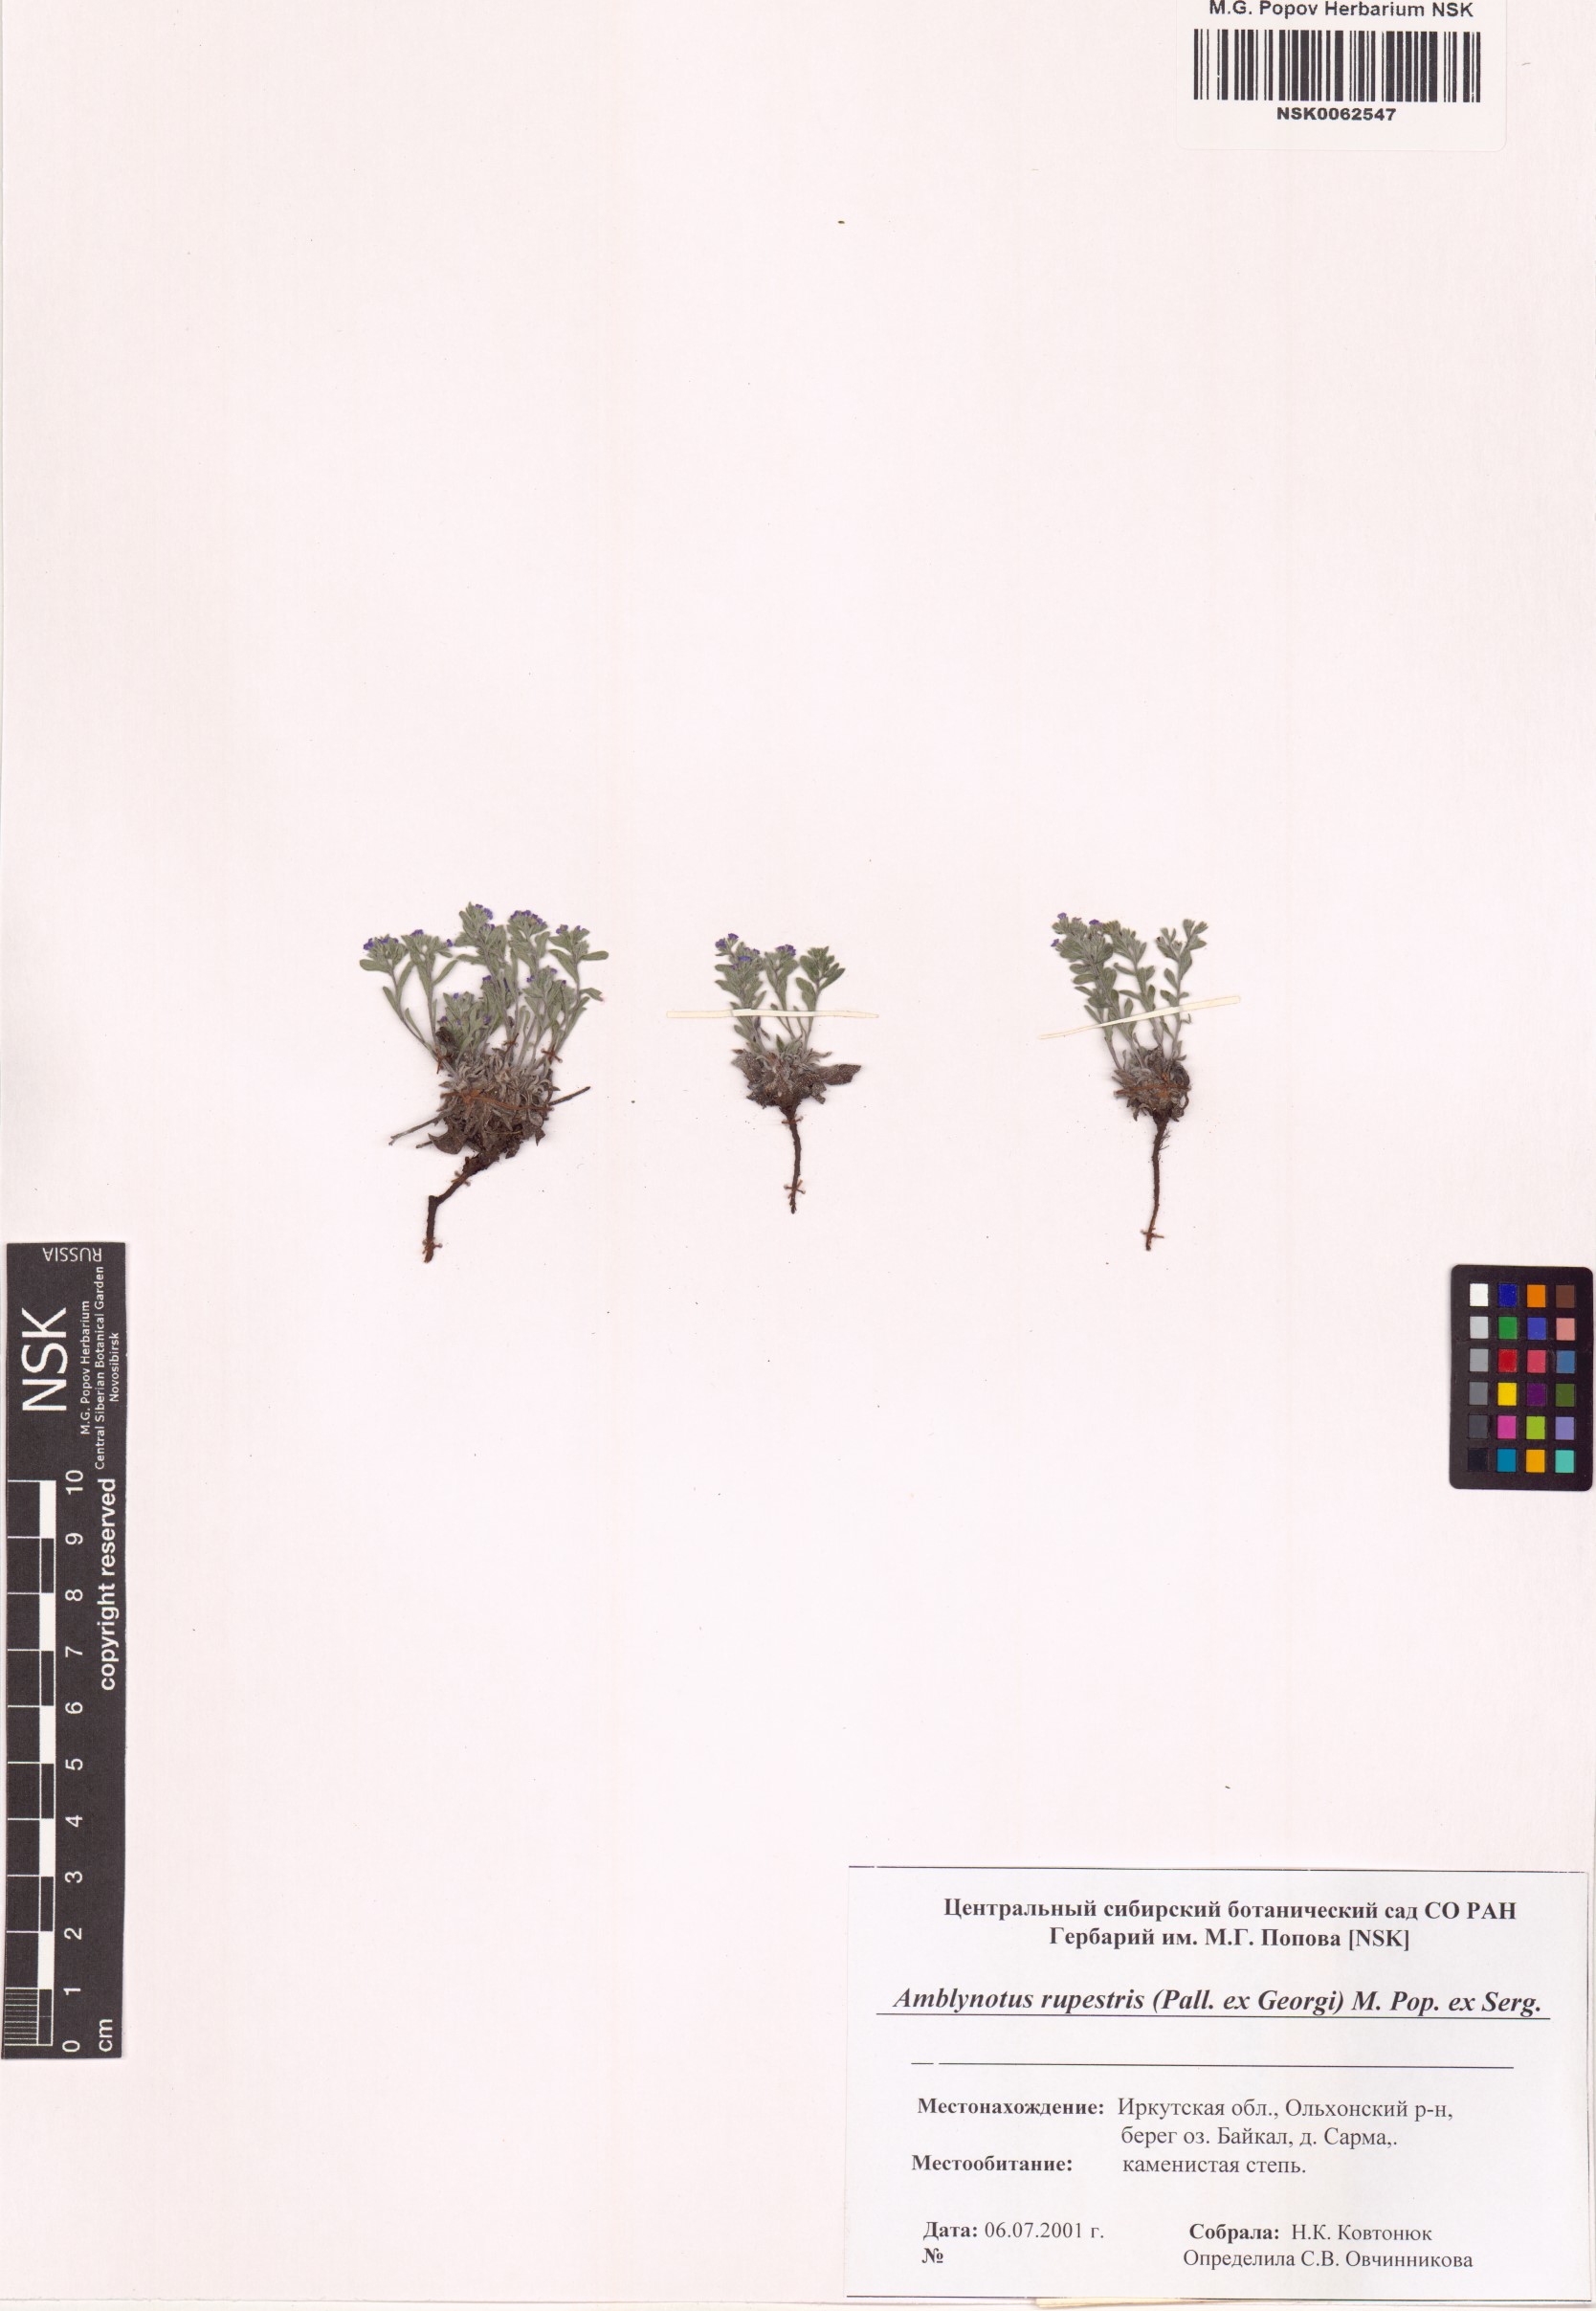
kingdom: Plantae
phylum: Tracheophyta
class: Magnoliopsida
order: Boraginales
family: Boraginaceae
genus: Eritrichium
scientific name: Eritrichium rupestre
